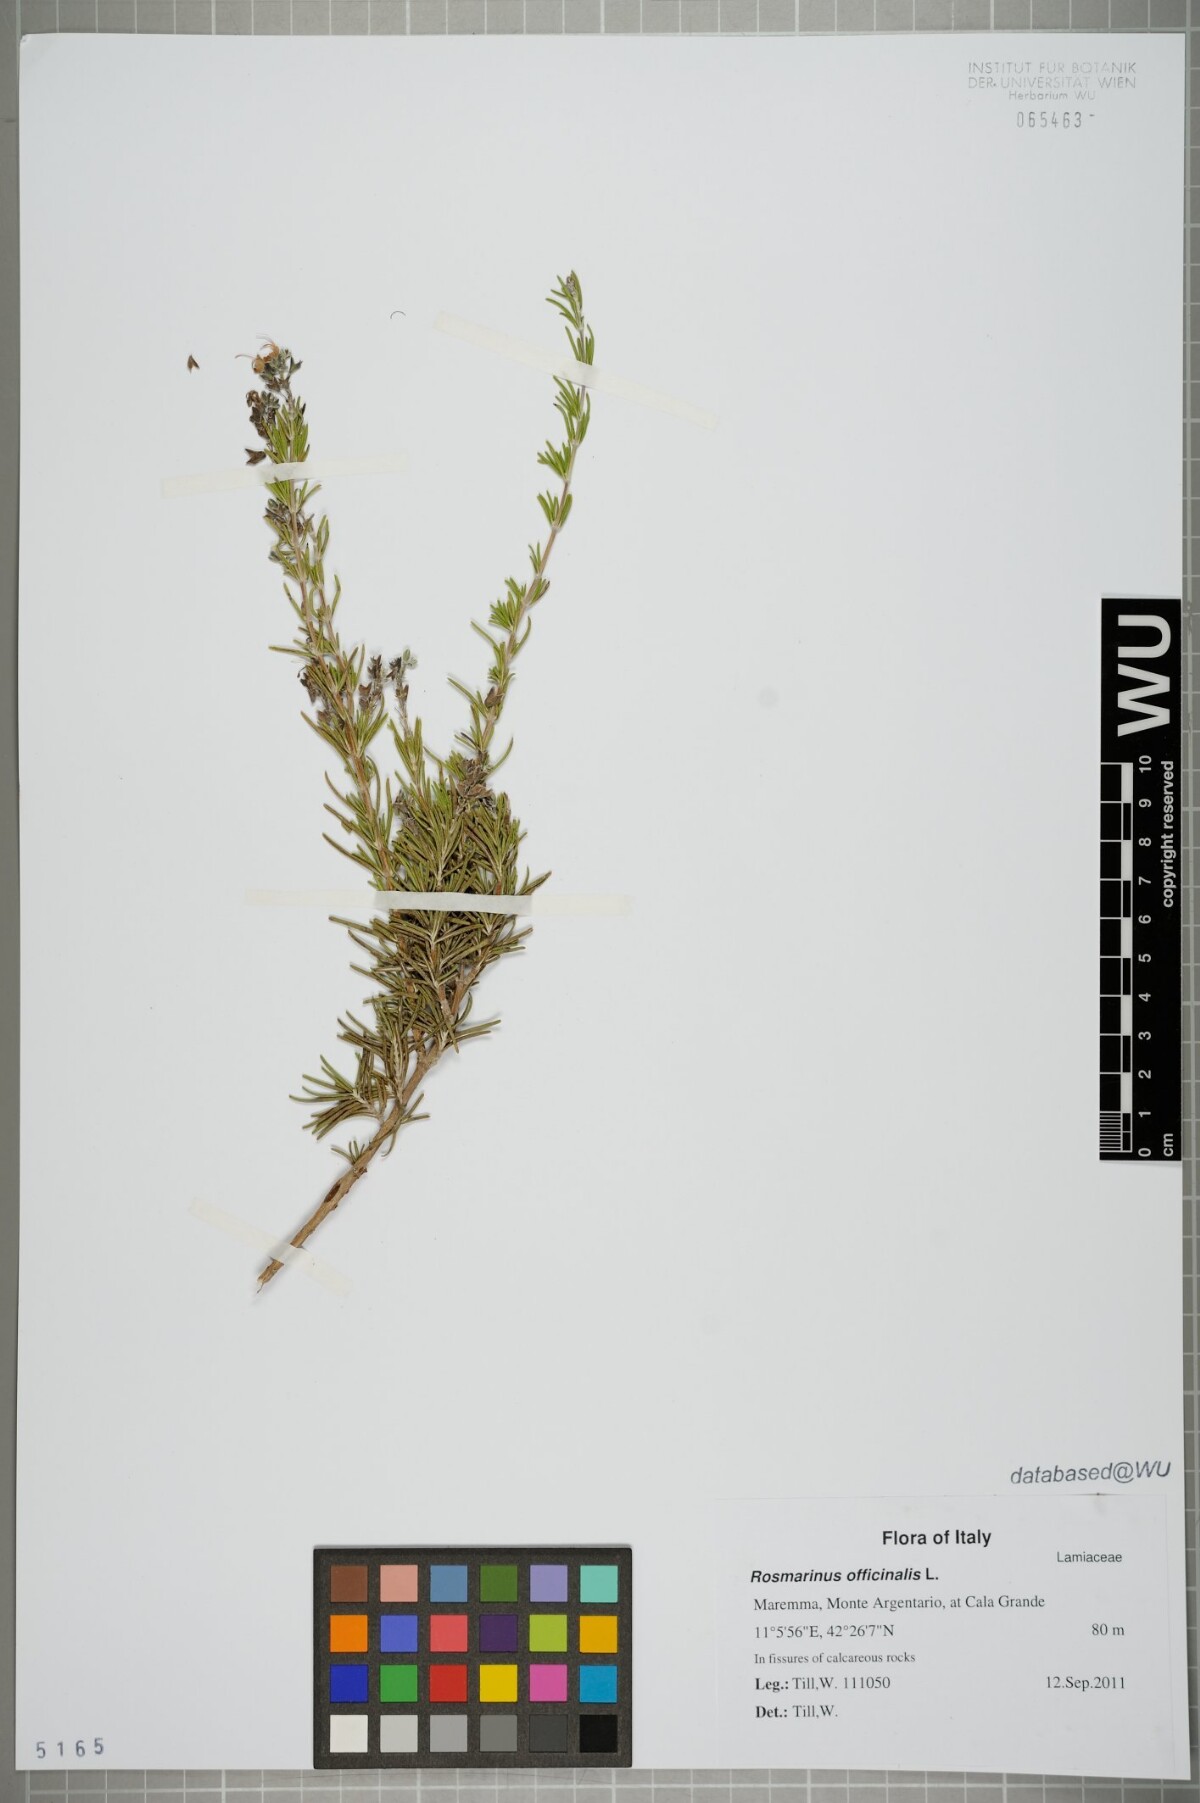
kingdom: Plantae
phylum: Tracheophyta
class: Magnoliopsida
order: Lamiales
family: Lamiaceae
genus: Salvia
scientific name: Salvia rosmarinus
